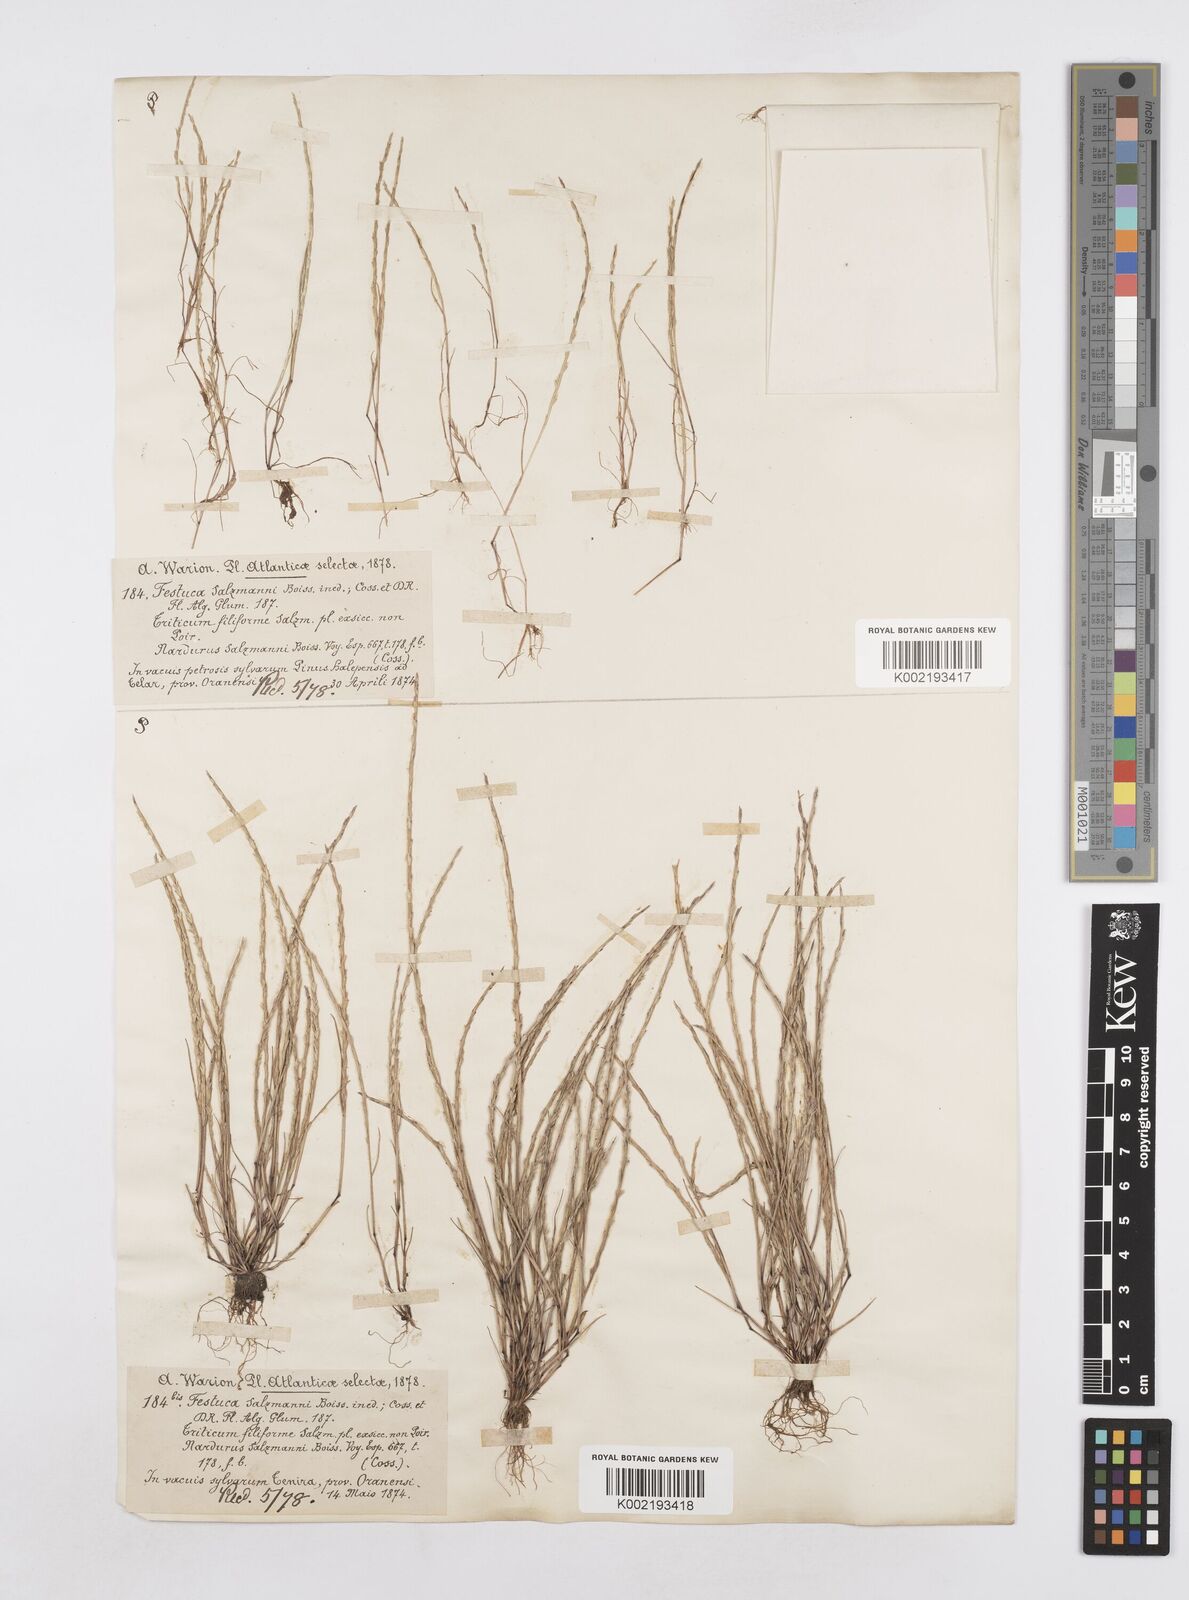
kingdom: Plantae
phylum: Tracheophyta
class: Liliopsida
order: Poales
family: Poaceae
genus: Festuca
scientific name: Festuca salzmannii
